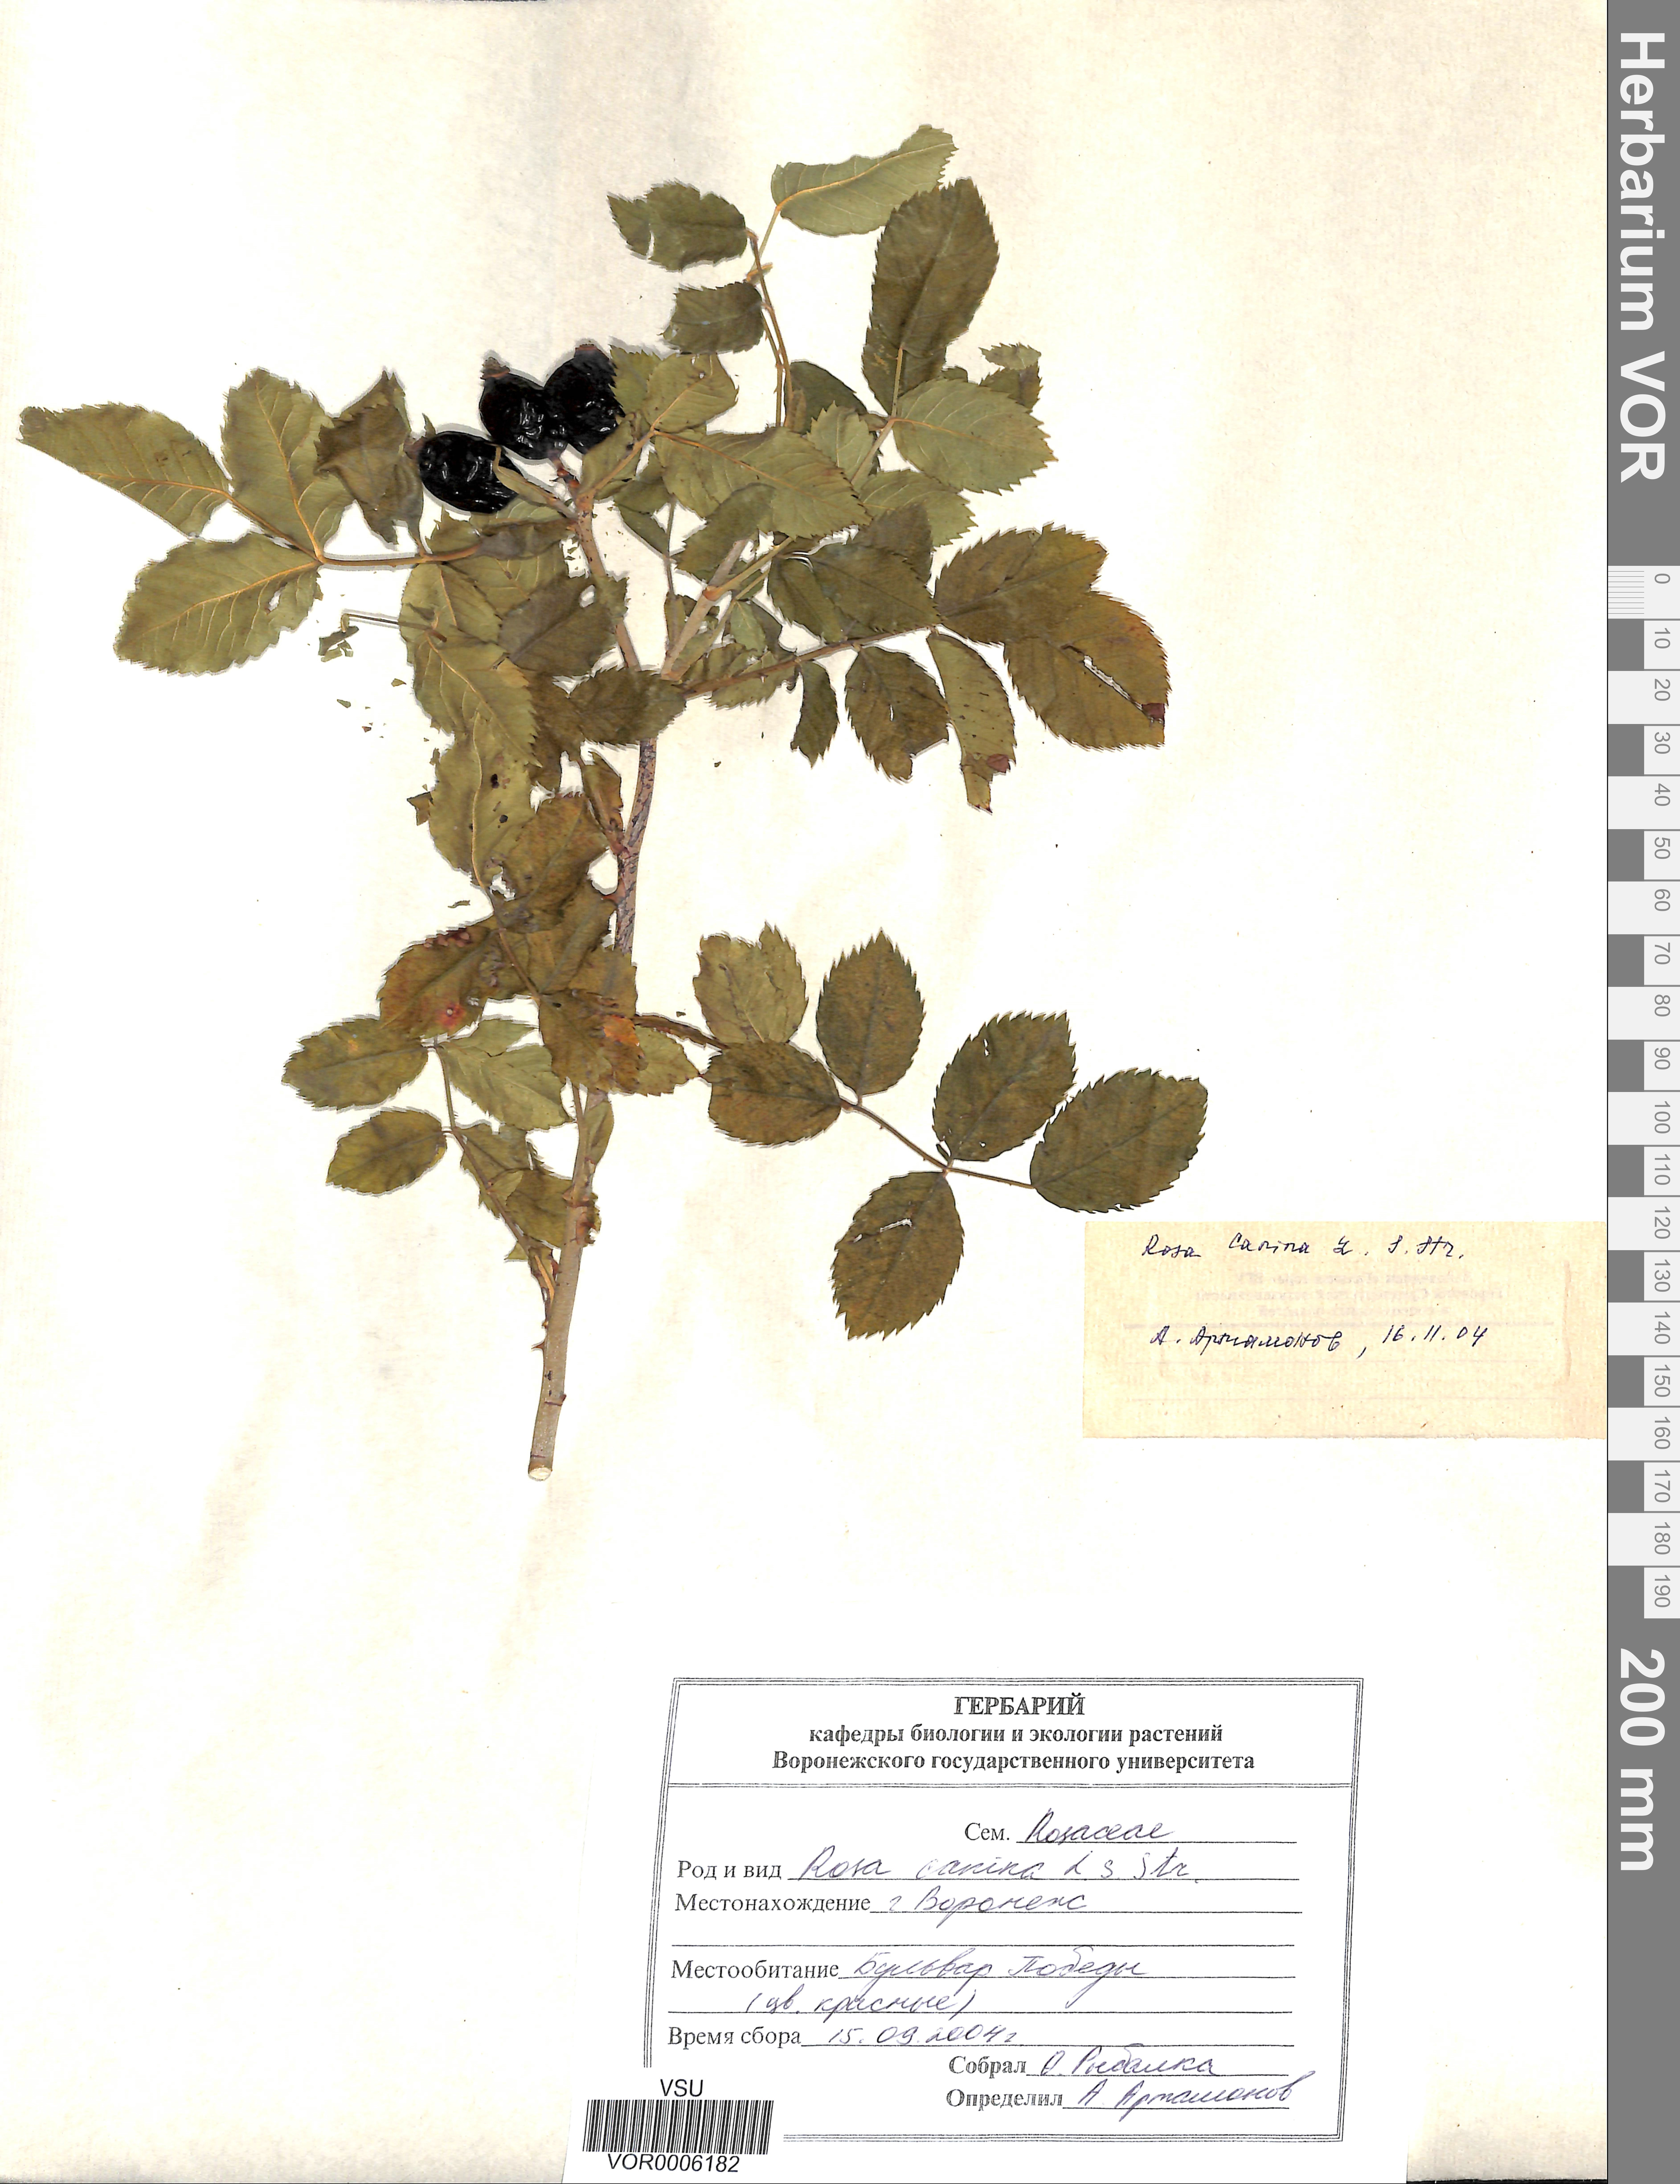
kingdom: Plantae
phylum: Tracheophyta
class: Magnoliopsida
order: Rosales
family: Rosaceae
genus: Rosa
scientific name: Rosa canina
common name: Dog rose
